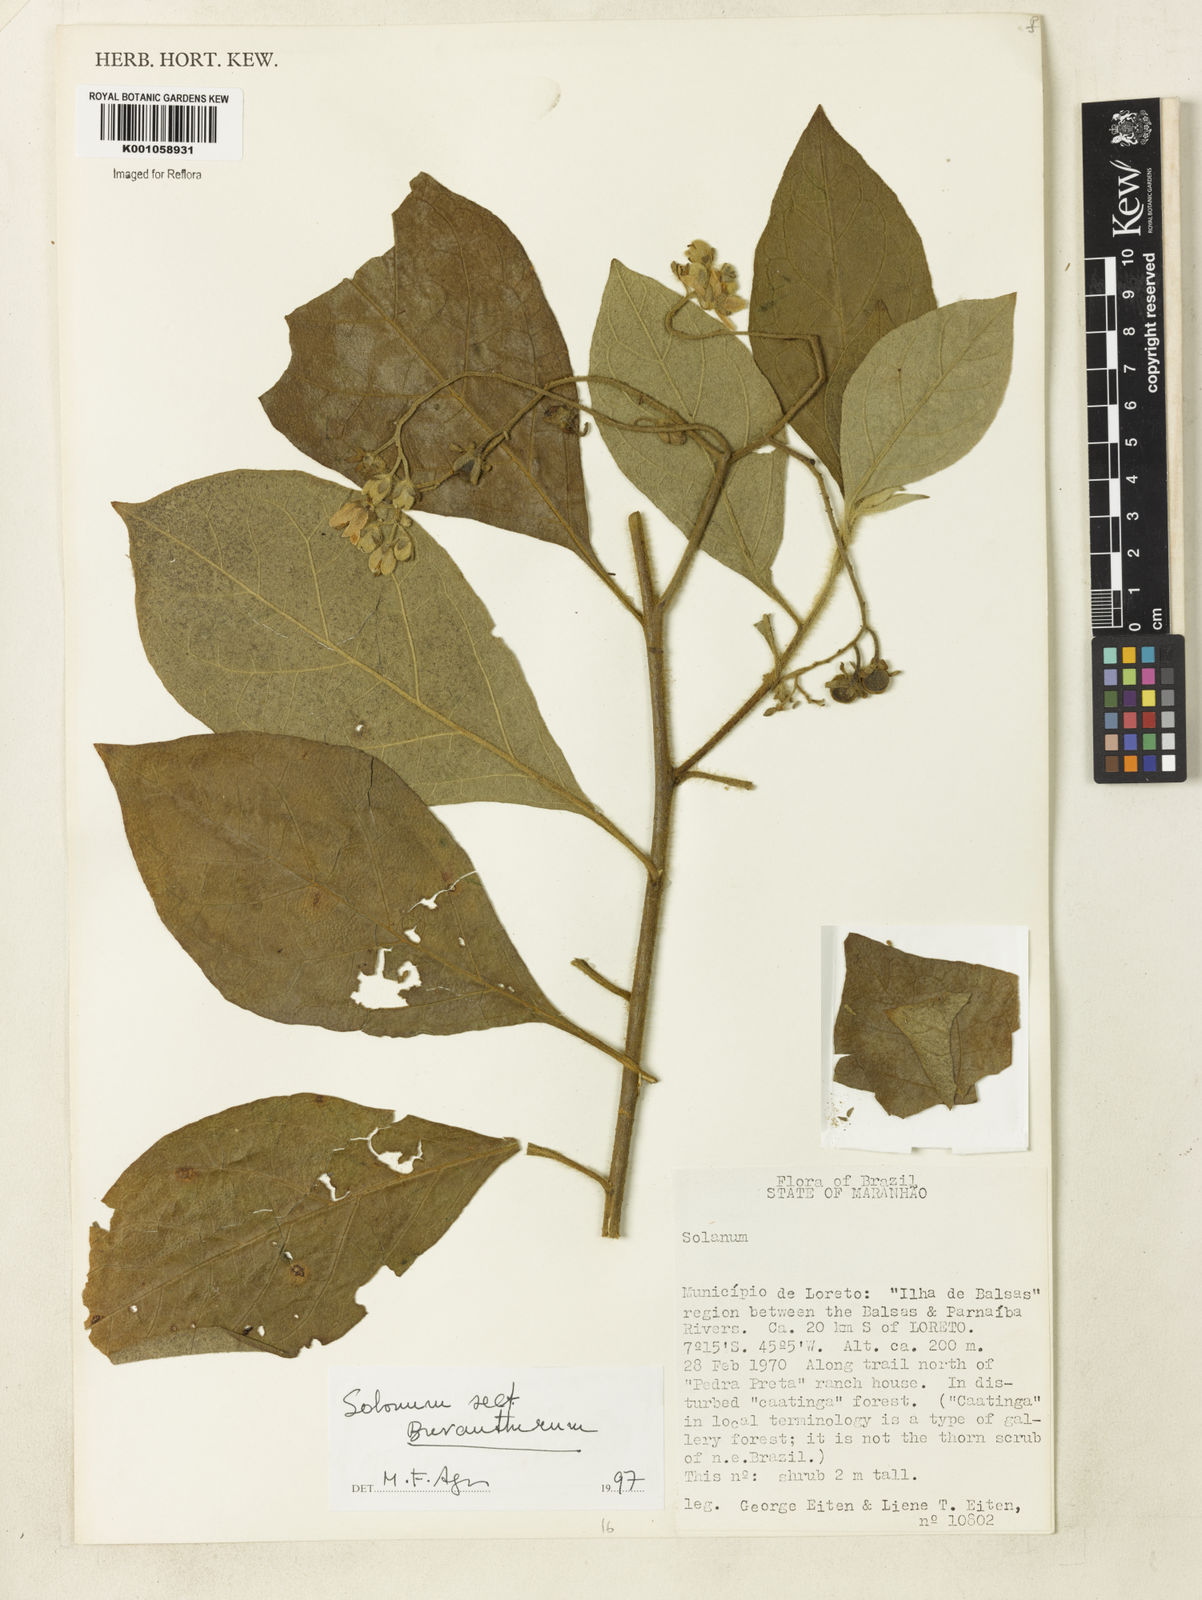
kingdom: Plantae
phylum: Tracheophyta
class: Magnoliopsida
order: Solanales
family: Solanaceae
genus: Solanum
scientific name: Solanum vaillantii
